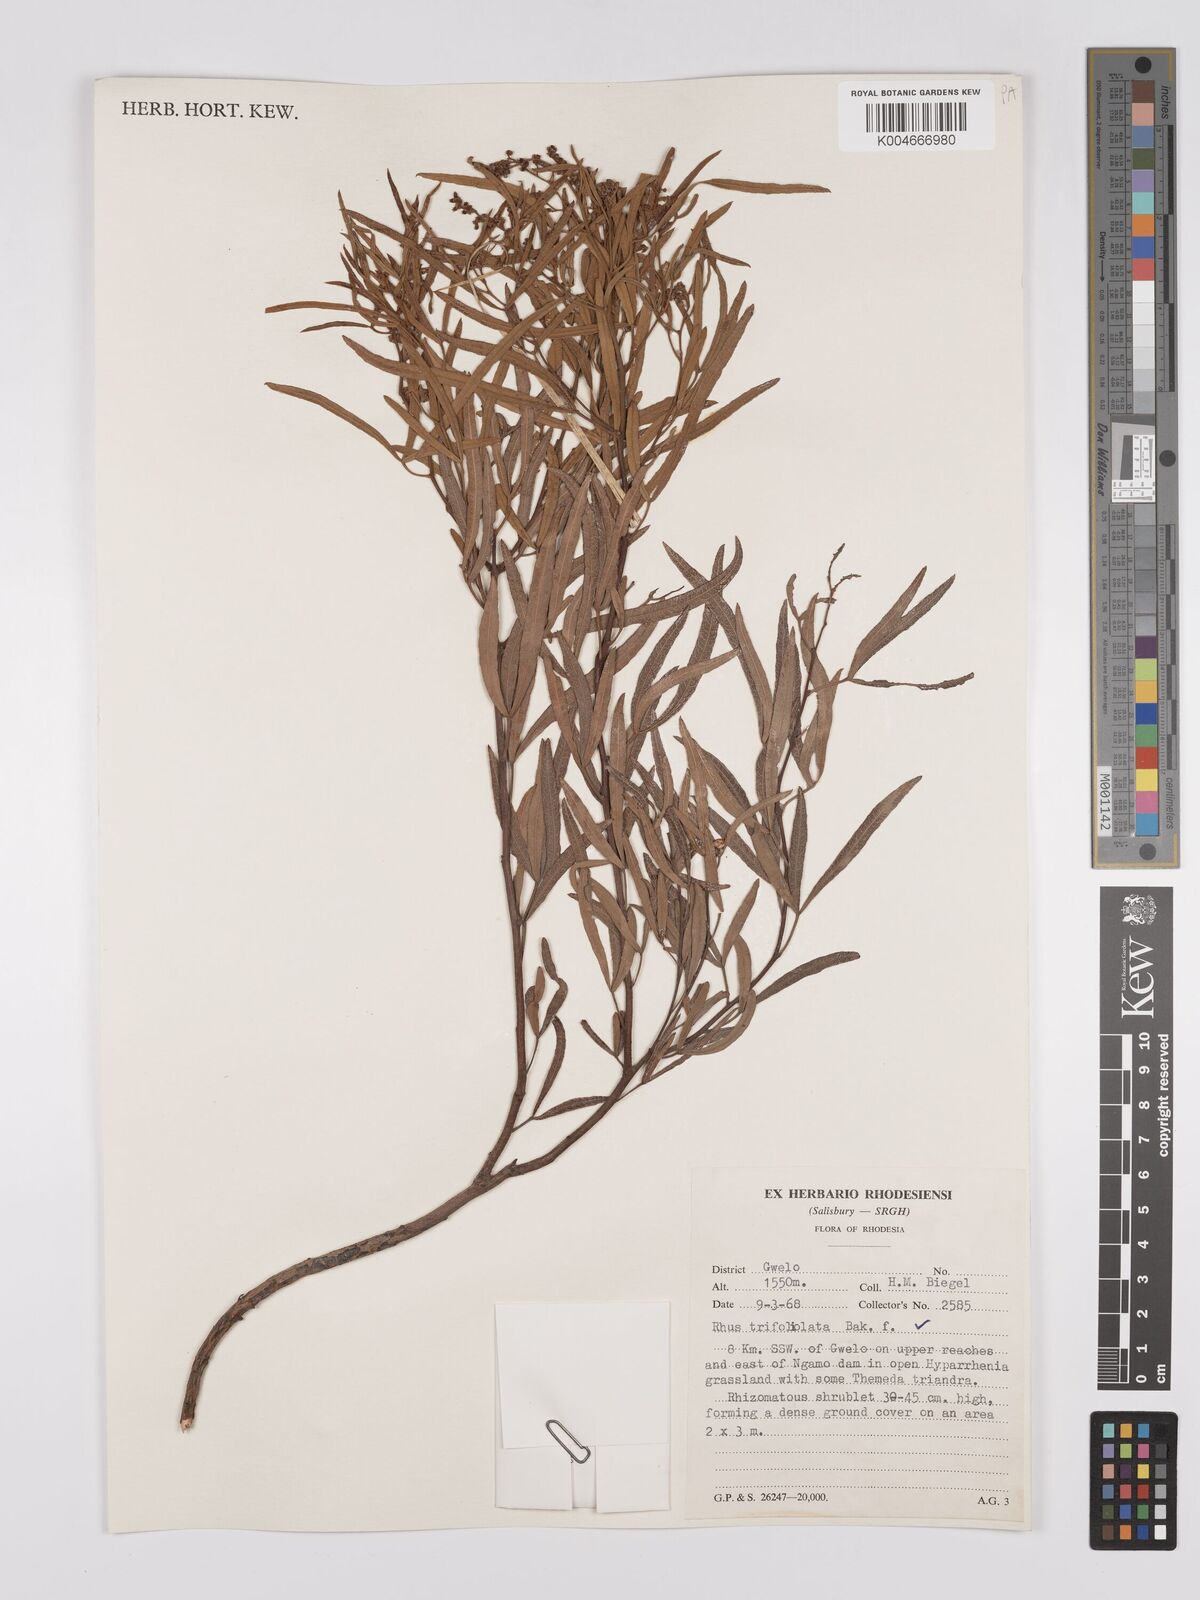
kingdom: Plantae
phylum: Tracheophyta
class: Magnoliopsida
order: Sapindales
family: Anacardiaceae
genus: Searsia
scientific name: Searsia magalismontana
